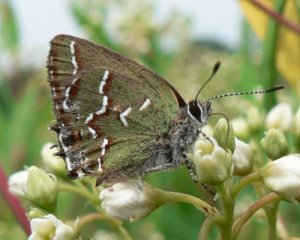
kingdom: Animalia
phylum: Arthropoda
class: Insecta
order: Lepidoptera
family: Lycaenidae
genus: Mitoura
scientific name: Mitoura gryneus
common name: Juniper Hairstreak
